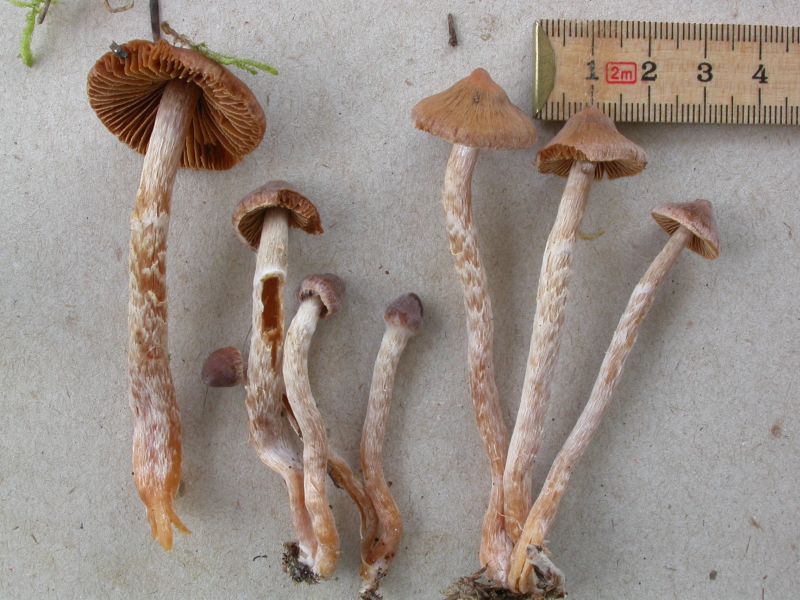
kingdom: Fungi
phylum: Basidiomycota
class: Agaricomycetes
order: Agaricales
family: Cortinariaceae
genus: Cortinarius
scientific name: Cortinarius
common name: hvidægget slørhat
